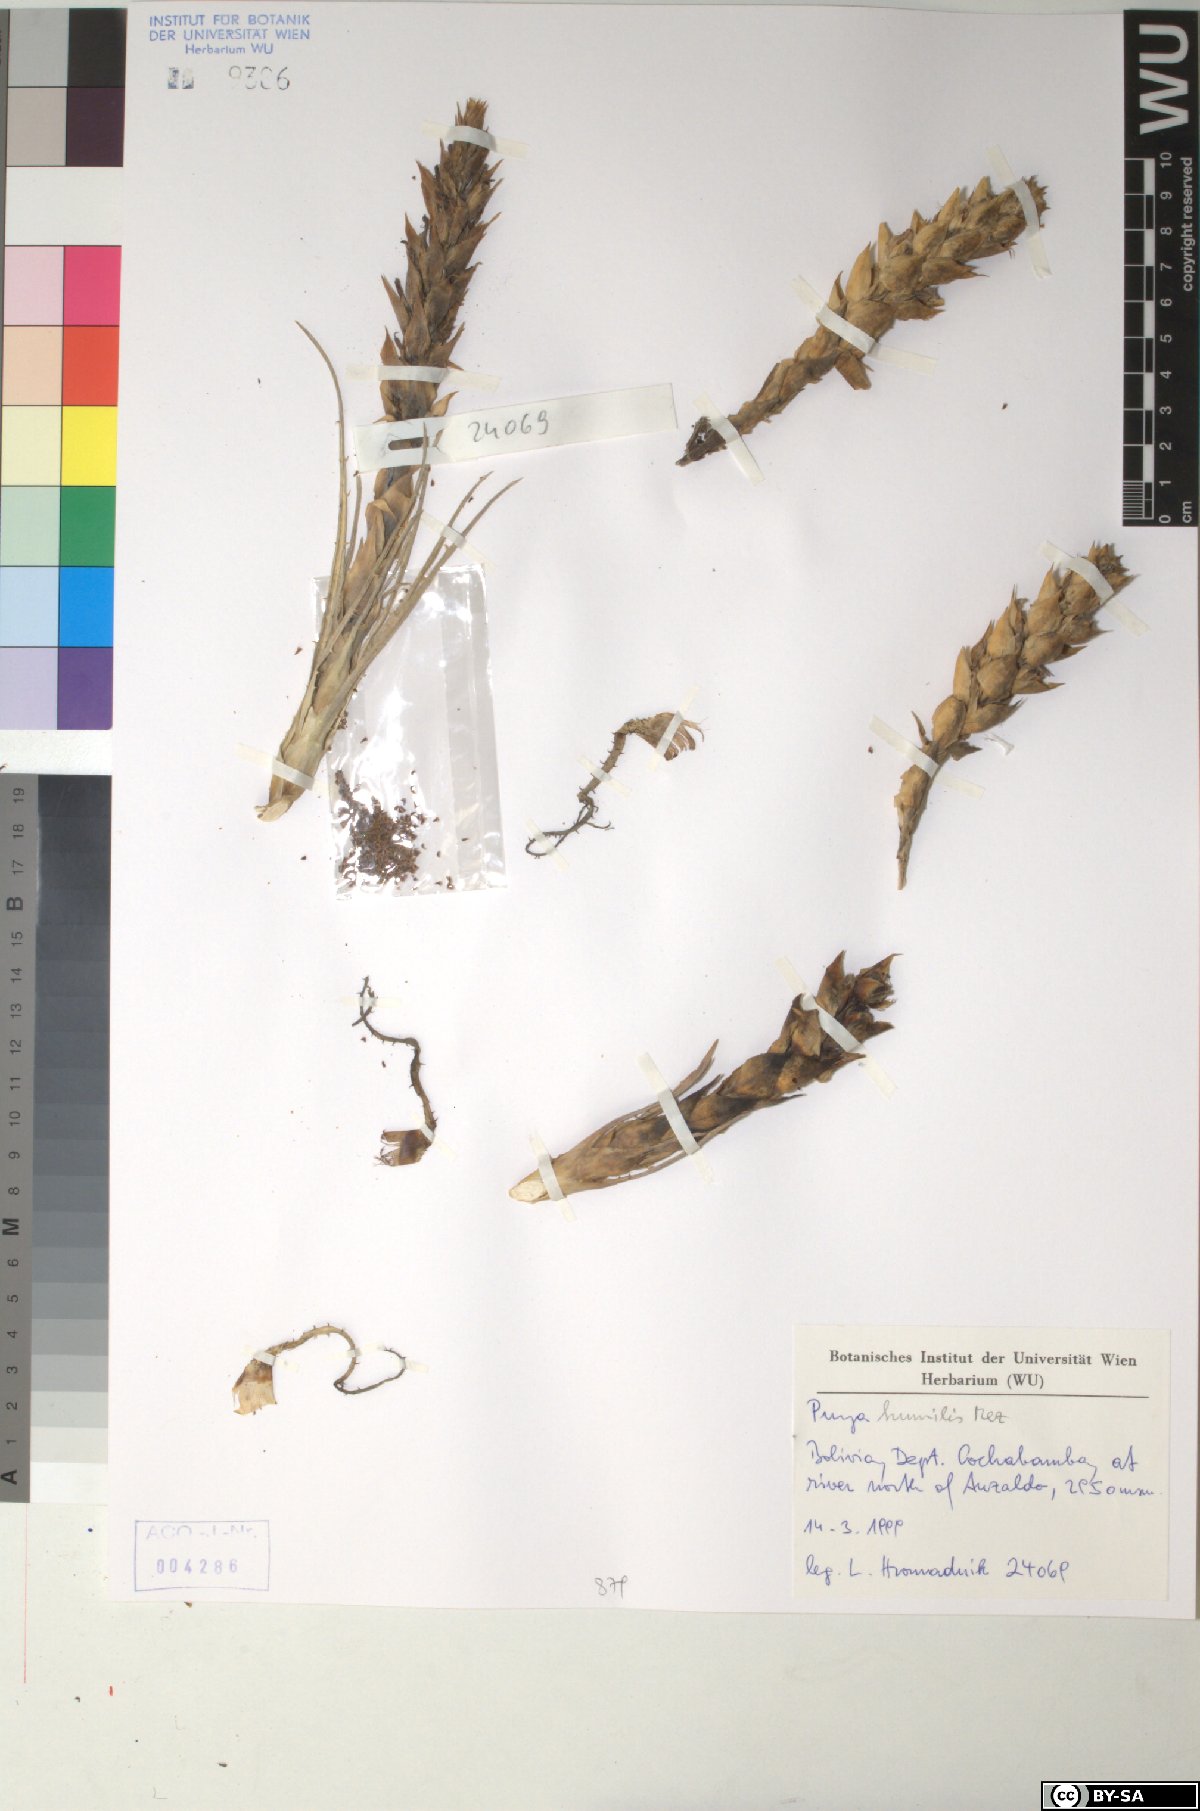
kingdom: Plantae
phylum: Tracheophyta
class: Liliopsida
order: Poales
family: Bromeliaceae
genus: Puya
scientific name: Puya humilis
